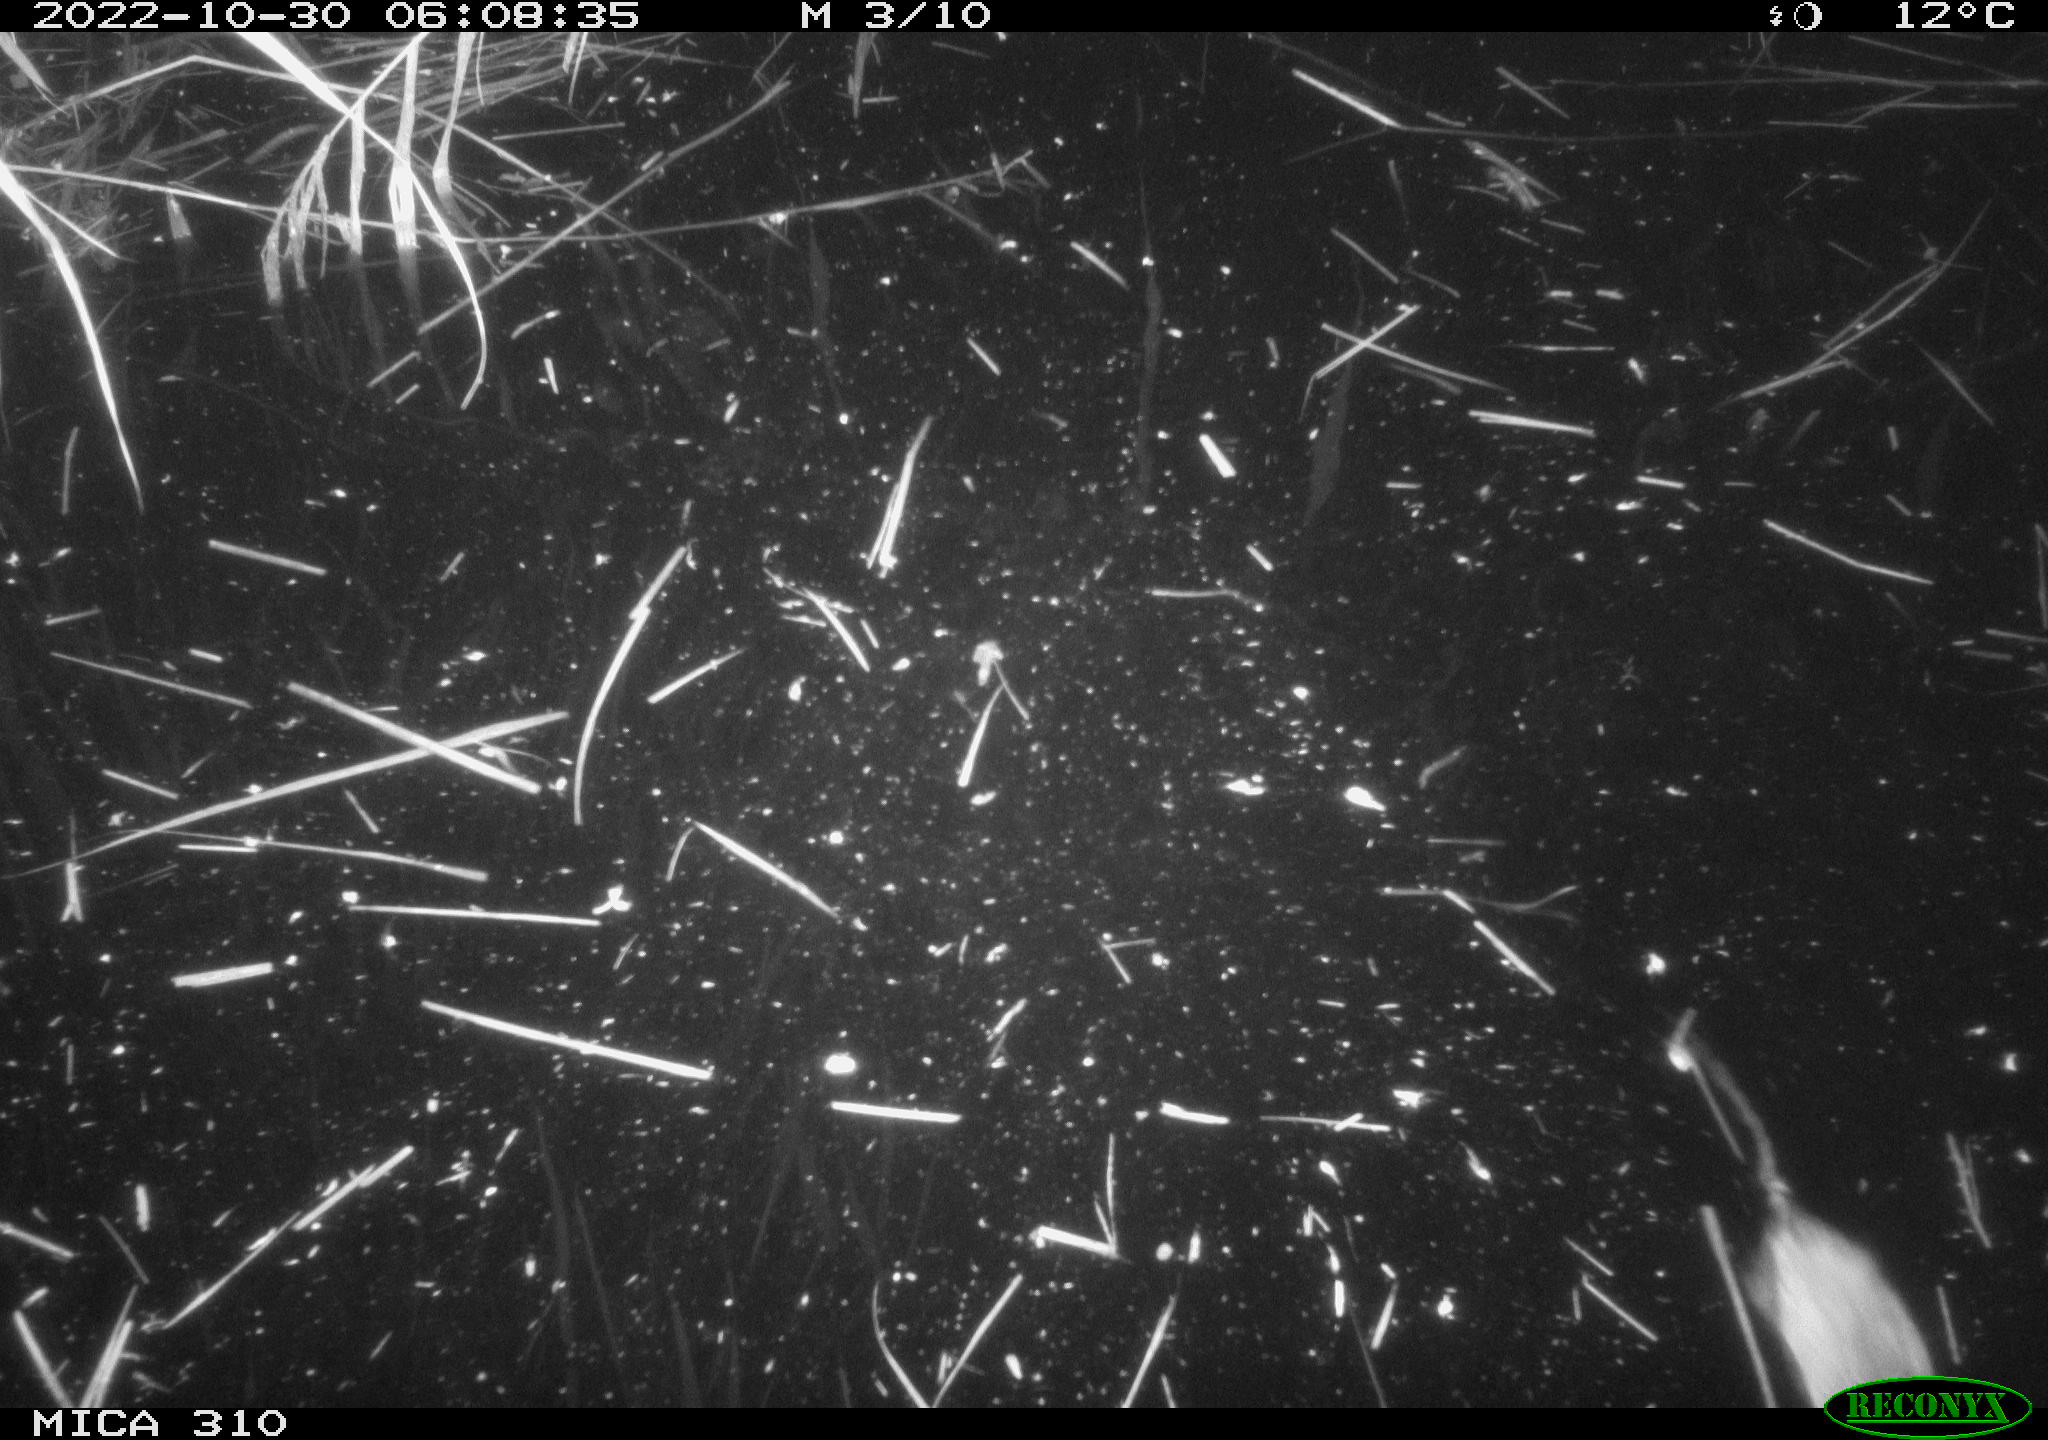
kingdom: Animalia
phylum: Chordata
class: Mammalia
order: Rodentia
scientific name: Rodentia
